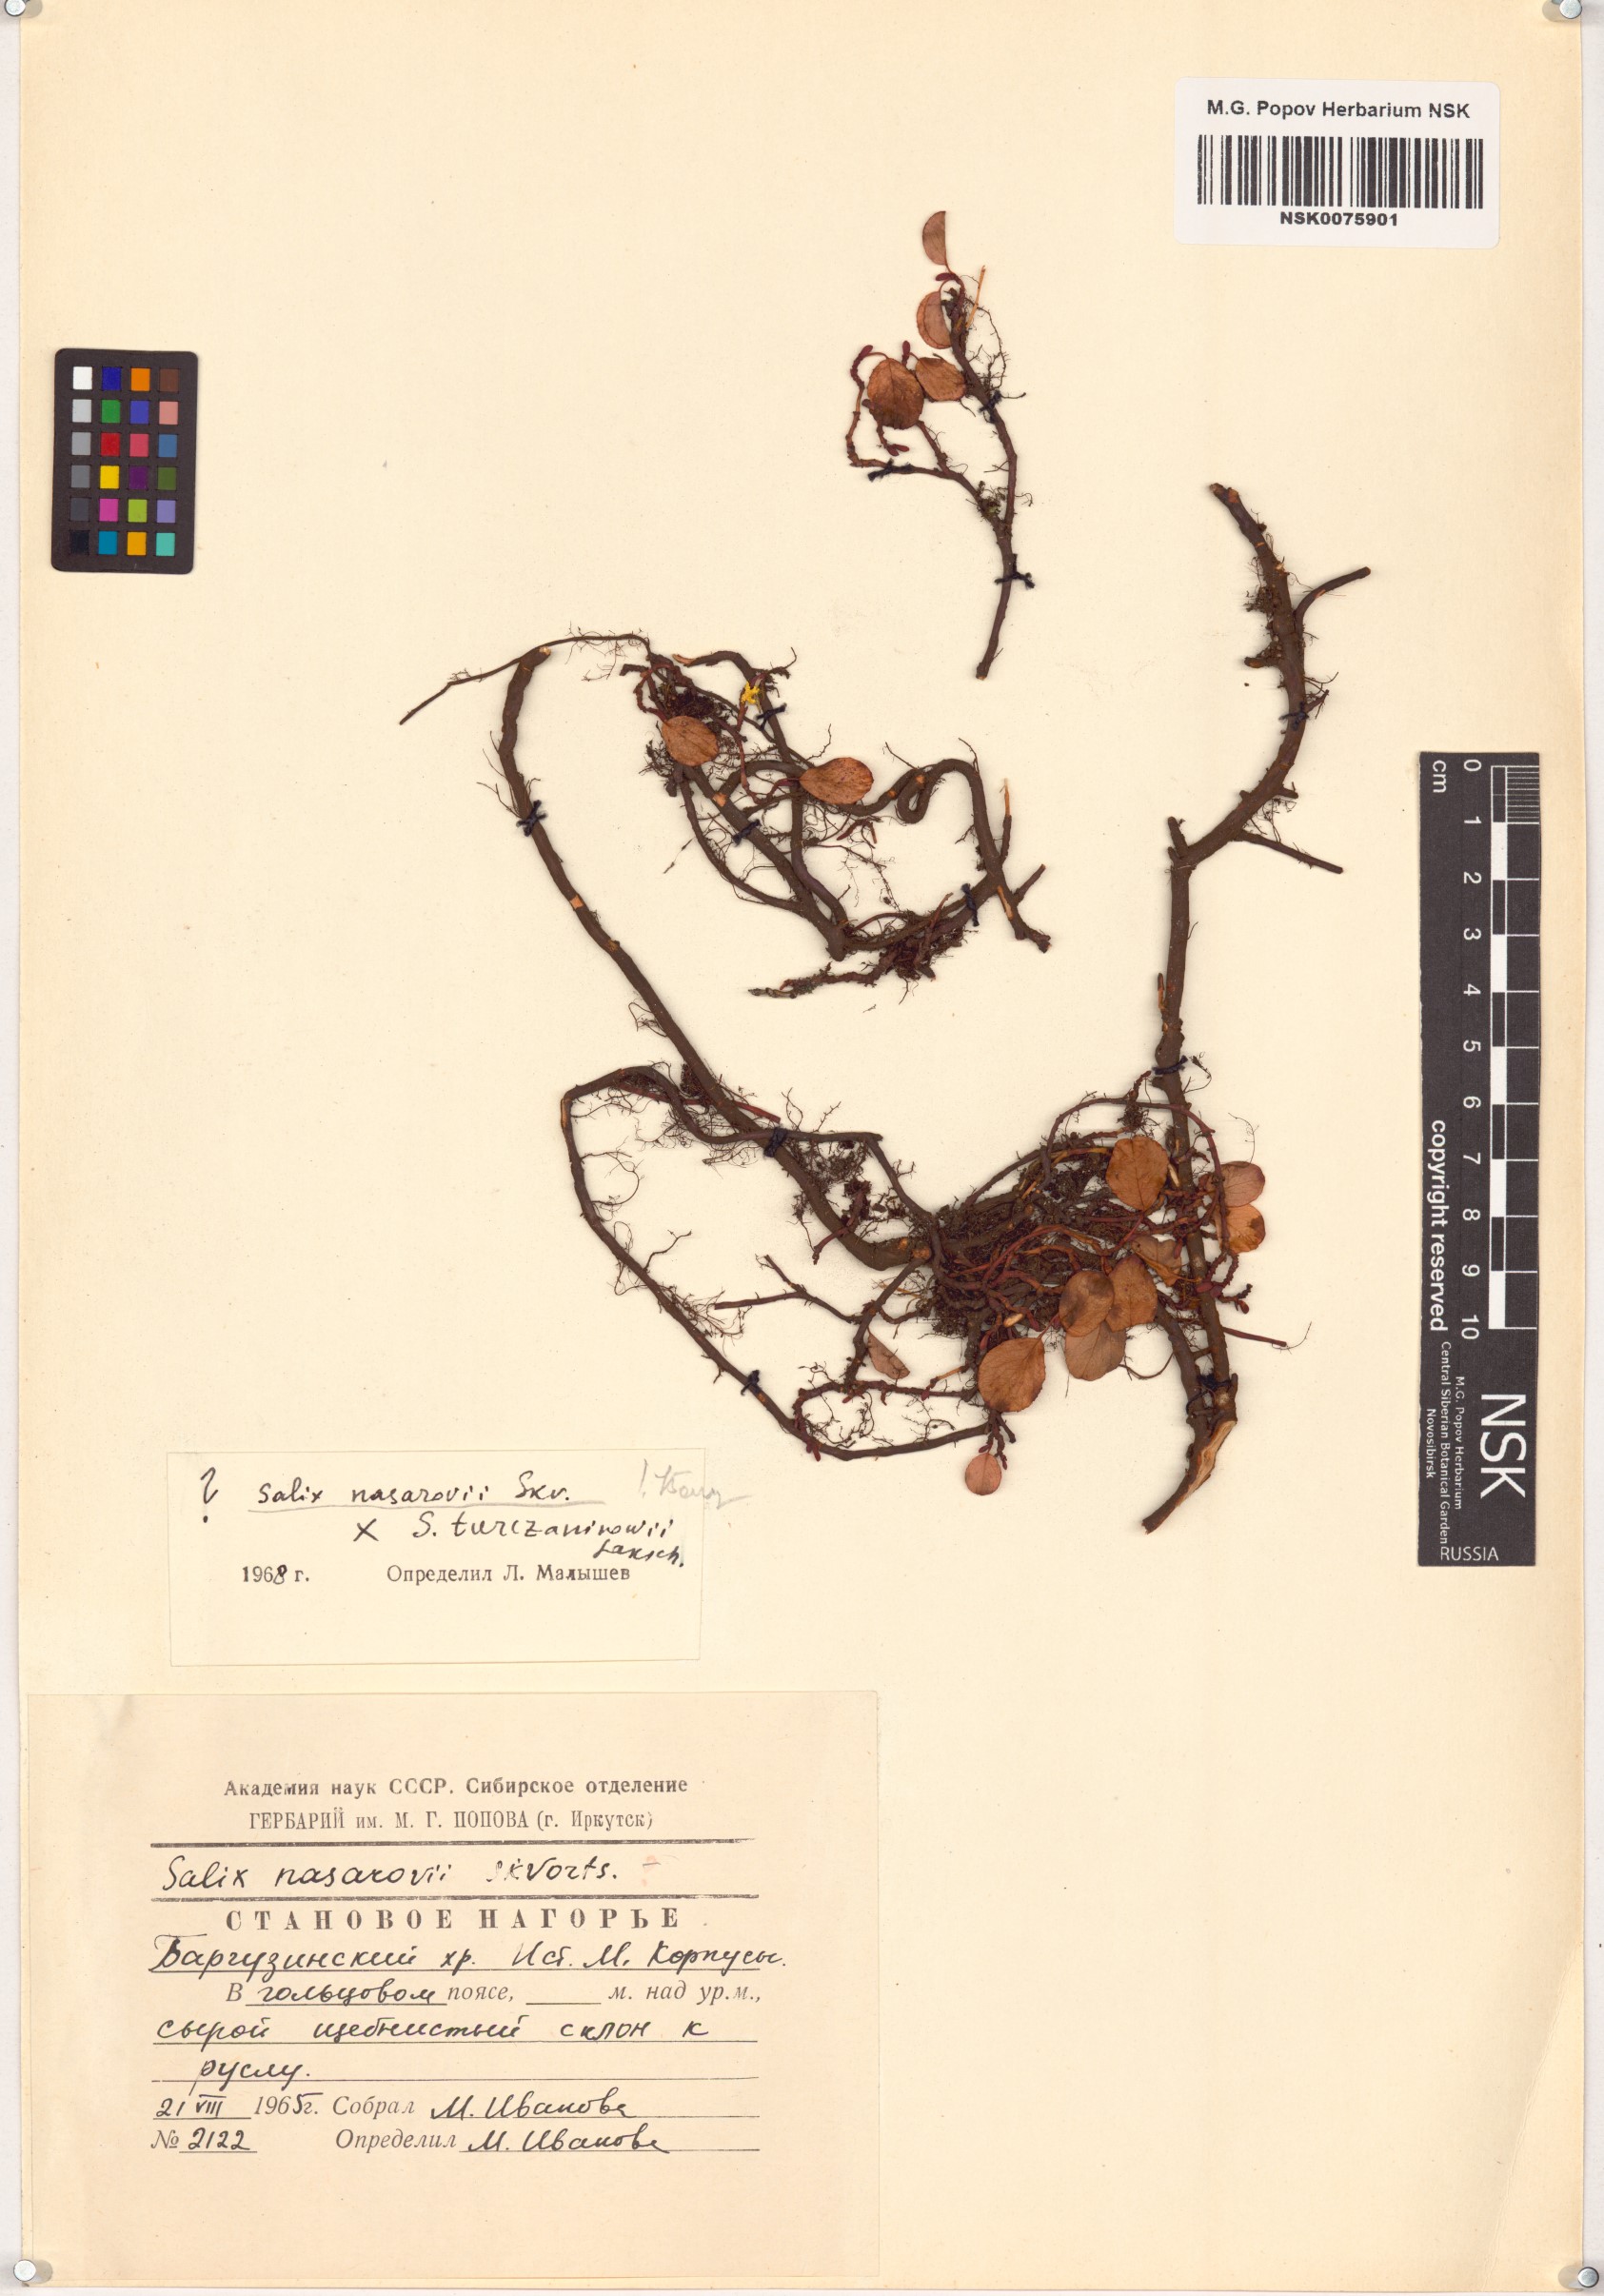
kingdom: Plantae
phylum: Tracheophyta
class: Magnoliopsida
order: Malpighiales
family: Salicaceae
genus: Salix
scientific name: Salix nasarovii
